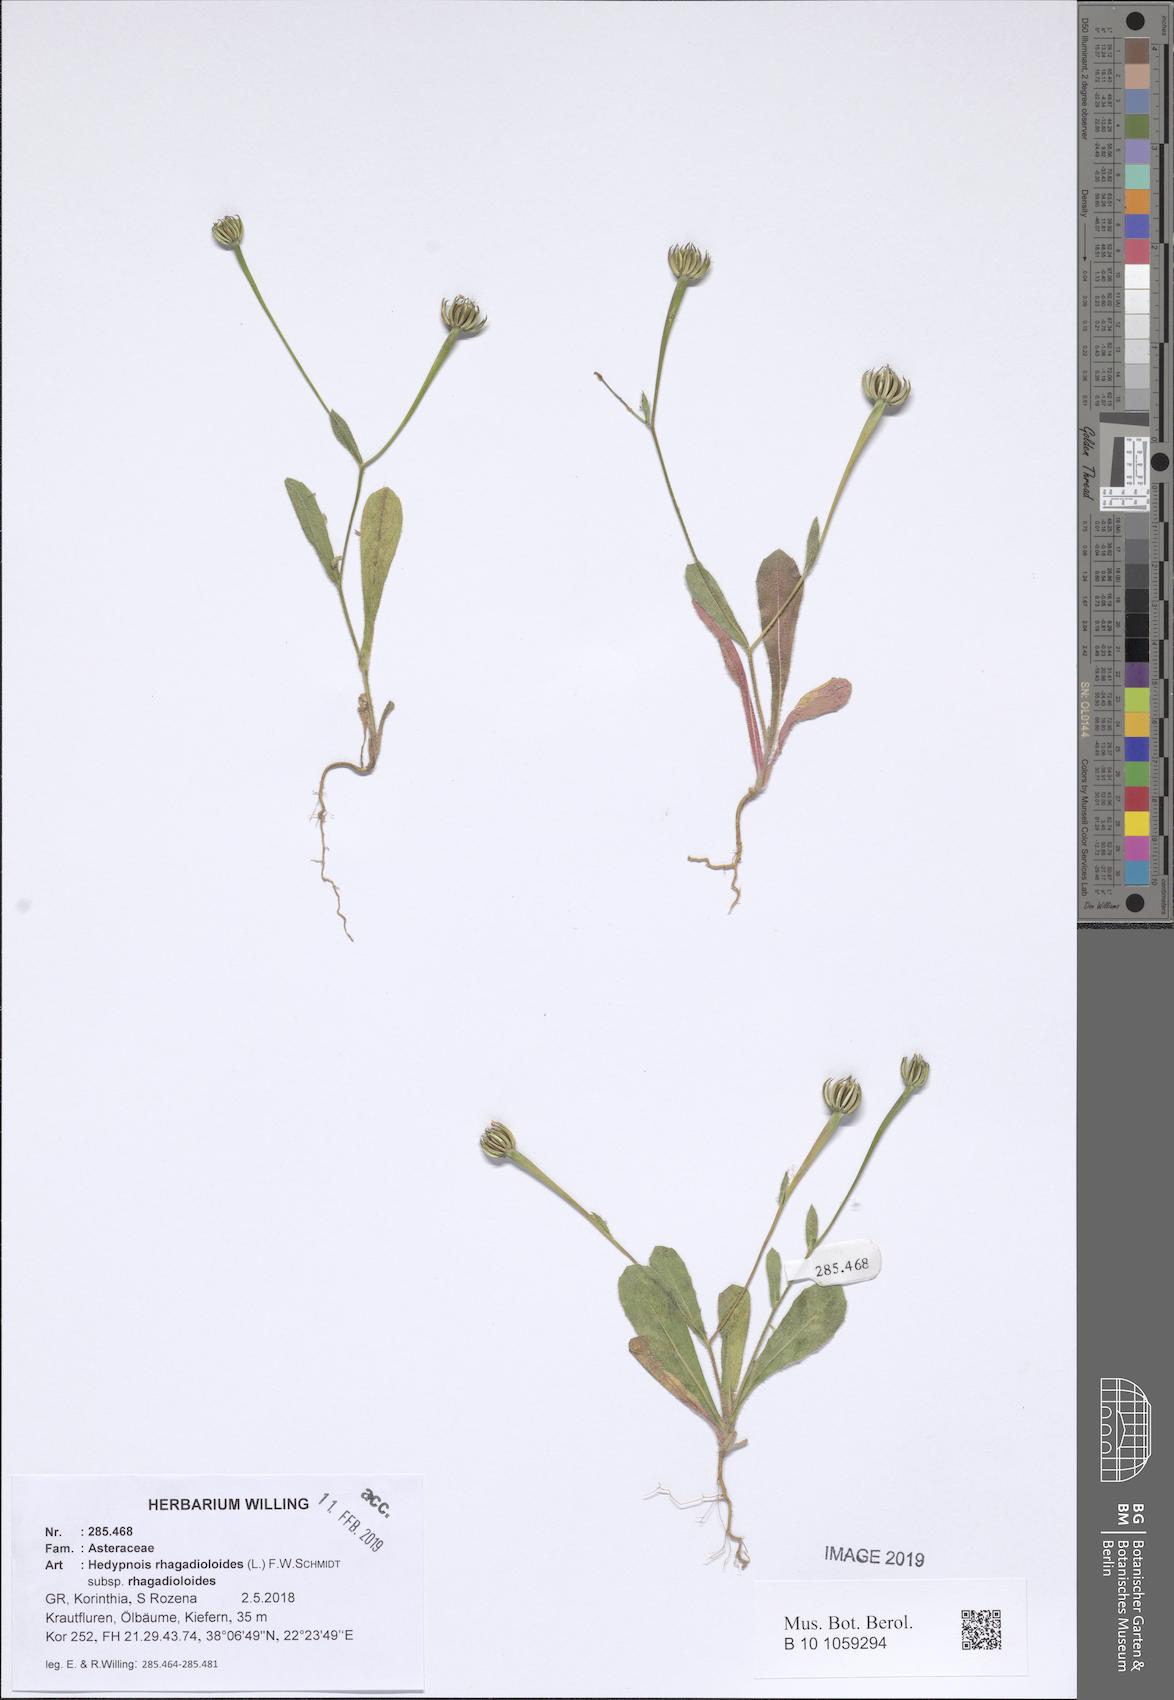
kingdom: Plantae
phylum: Tracheophyta
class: Magnoliopsida
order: Asterales
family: Asteraceae
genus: Hedypnois
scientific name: Hedypnois rhagadioloides
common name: Cretan weed
